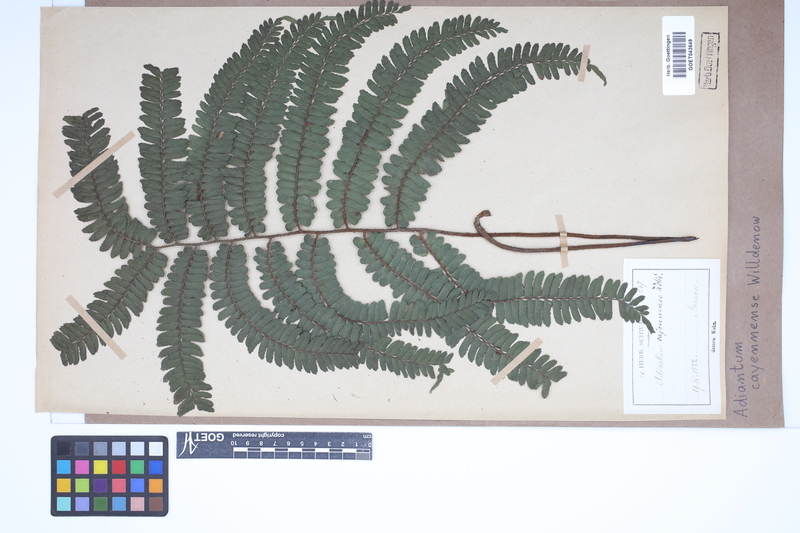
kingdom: Plantae
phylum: Tracheophyta
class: Polypodiopsida
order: Polypodiales
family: Pteridaceae
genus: Adiantum
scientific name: Adiantum cajennense
